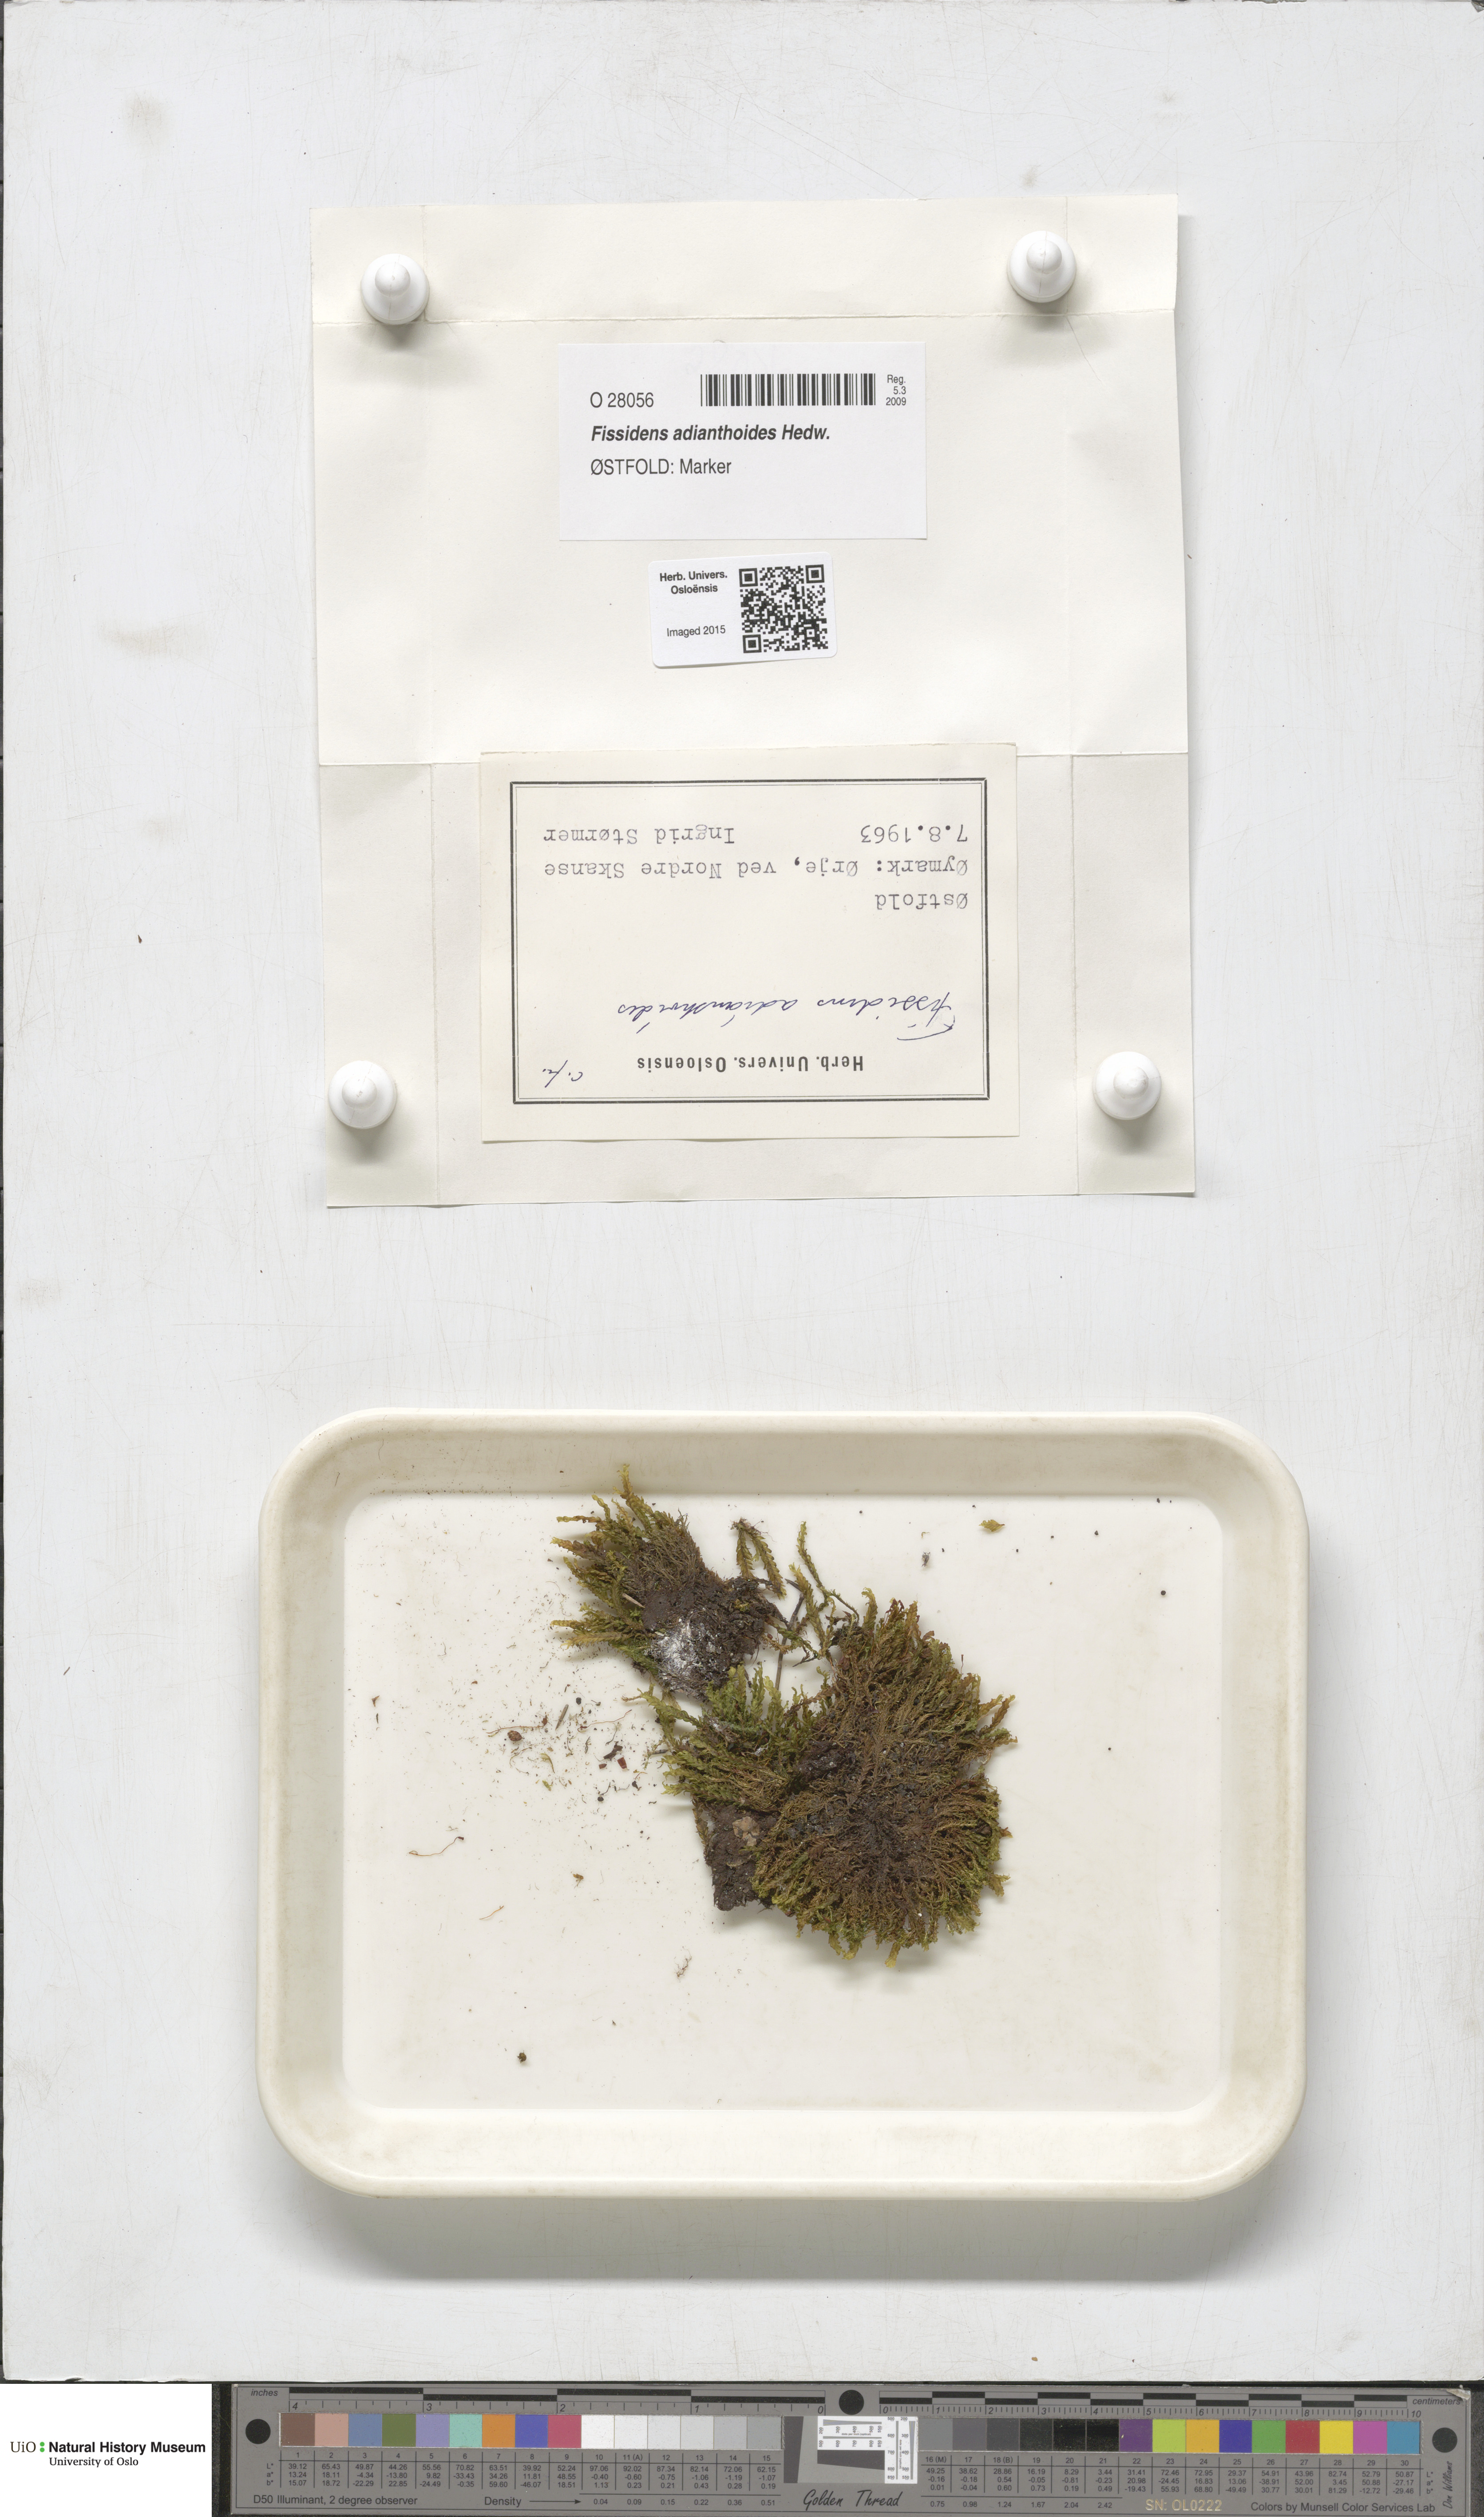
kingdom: Plantae
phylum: Bryophyta
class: Bryopsida
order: Dicranales
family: Fissidentaceae
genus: Fissidens
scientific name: Fissidens adianthoides
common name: Maidenhair pocket moss
